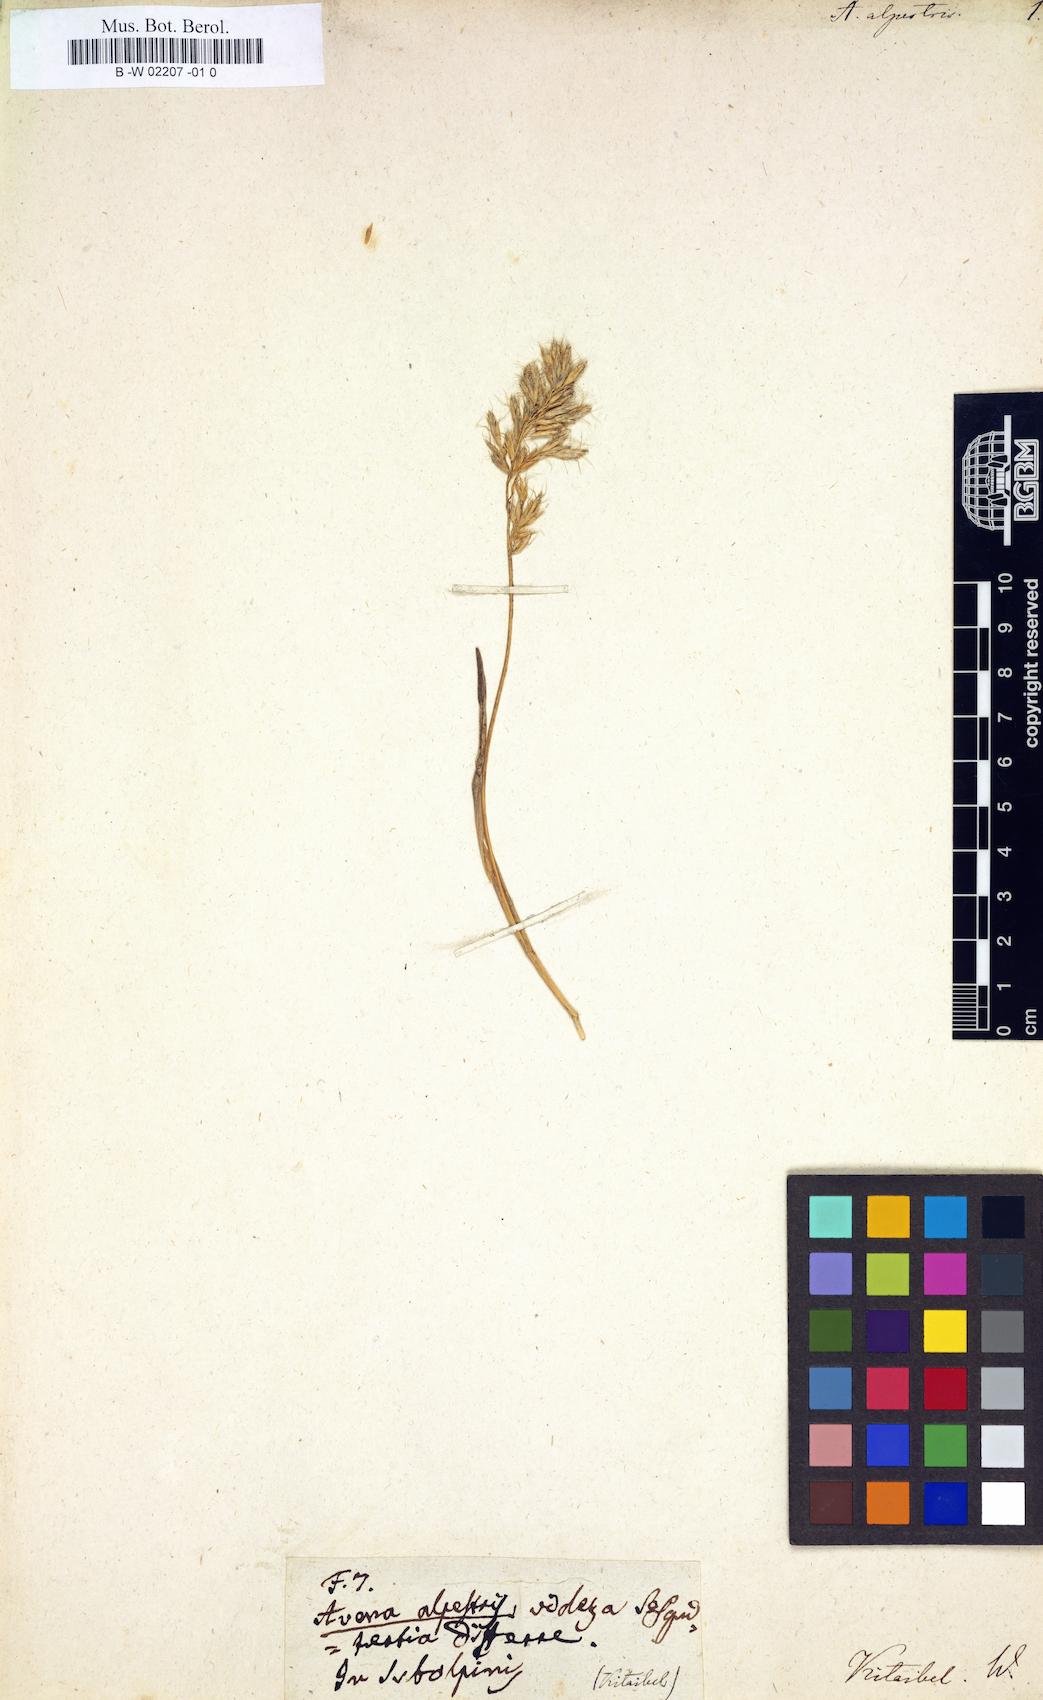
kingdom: Plantae
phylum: Tracheophyta
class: Liliopsida
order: Poales
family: Poaceae
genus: Avena
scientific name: Avena alpestris
